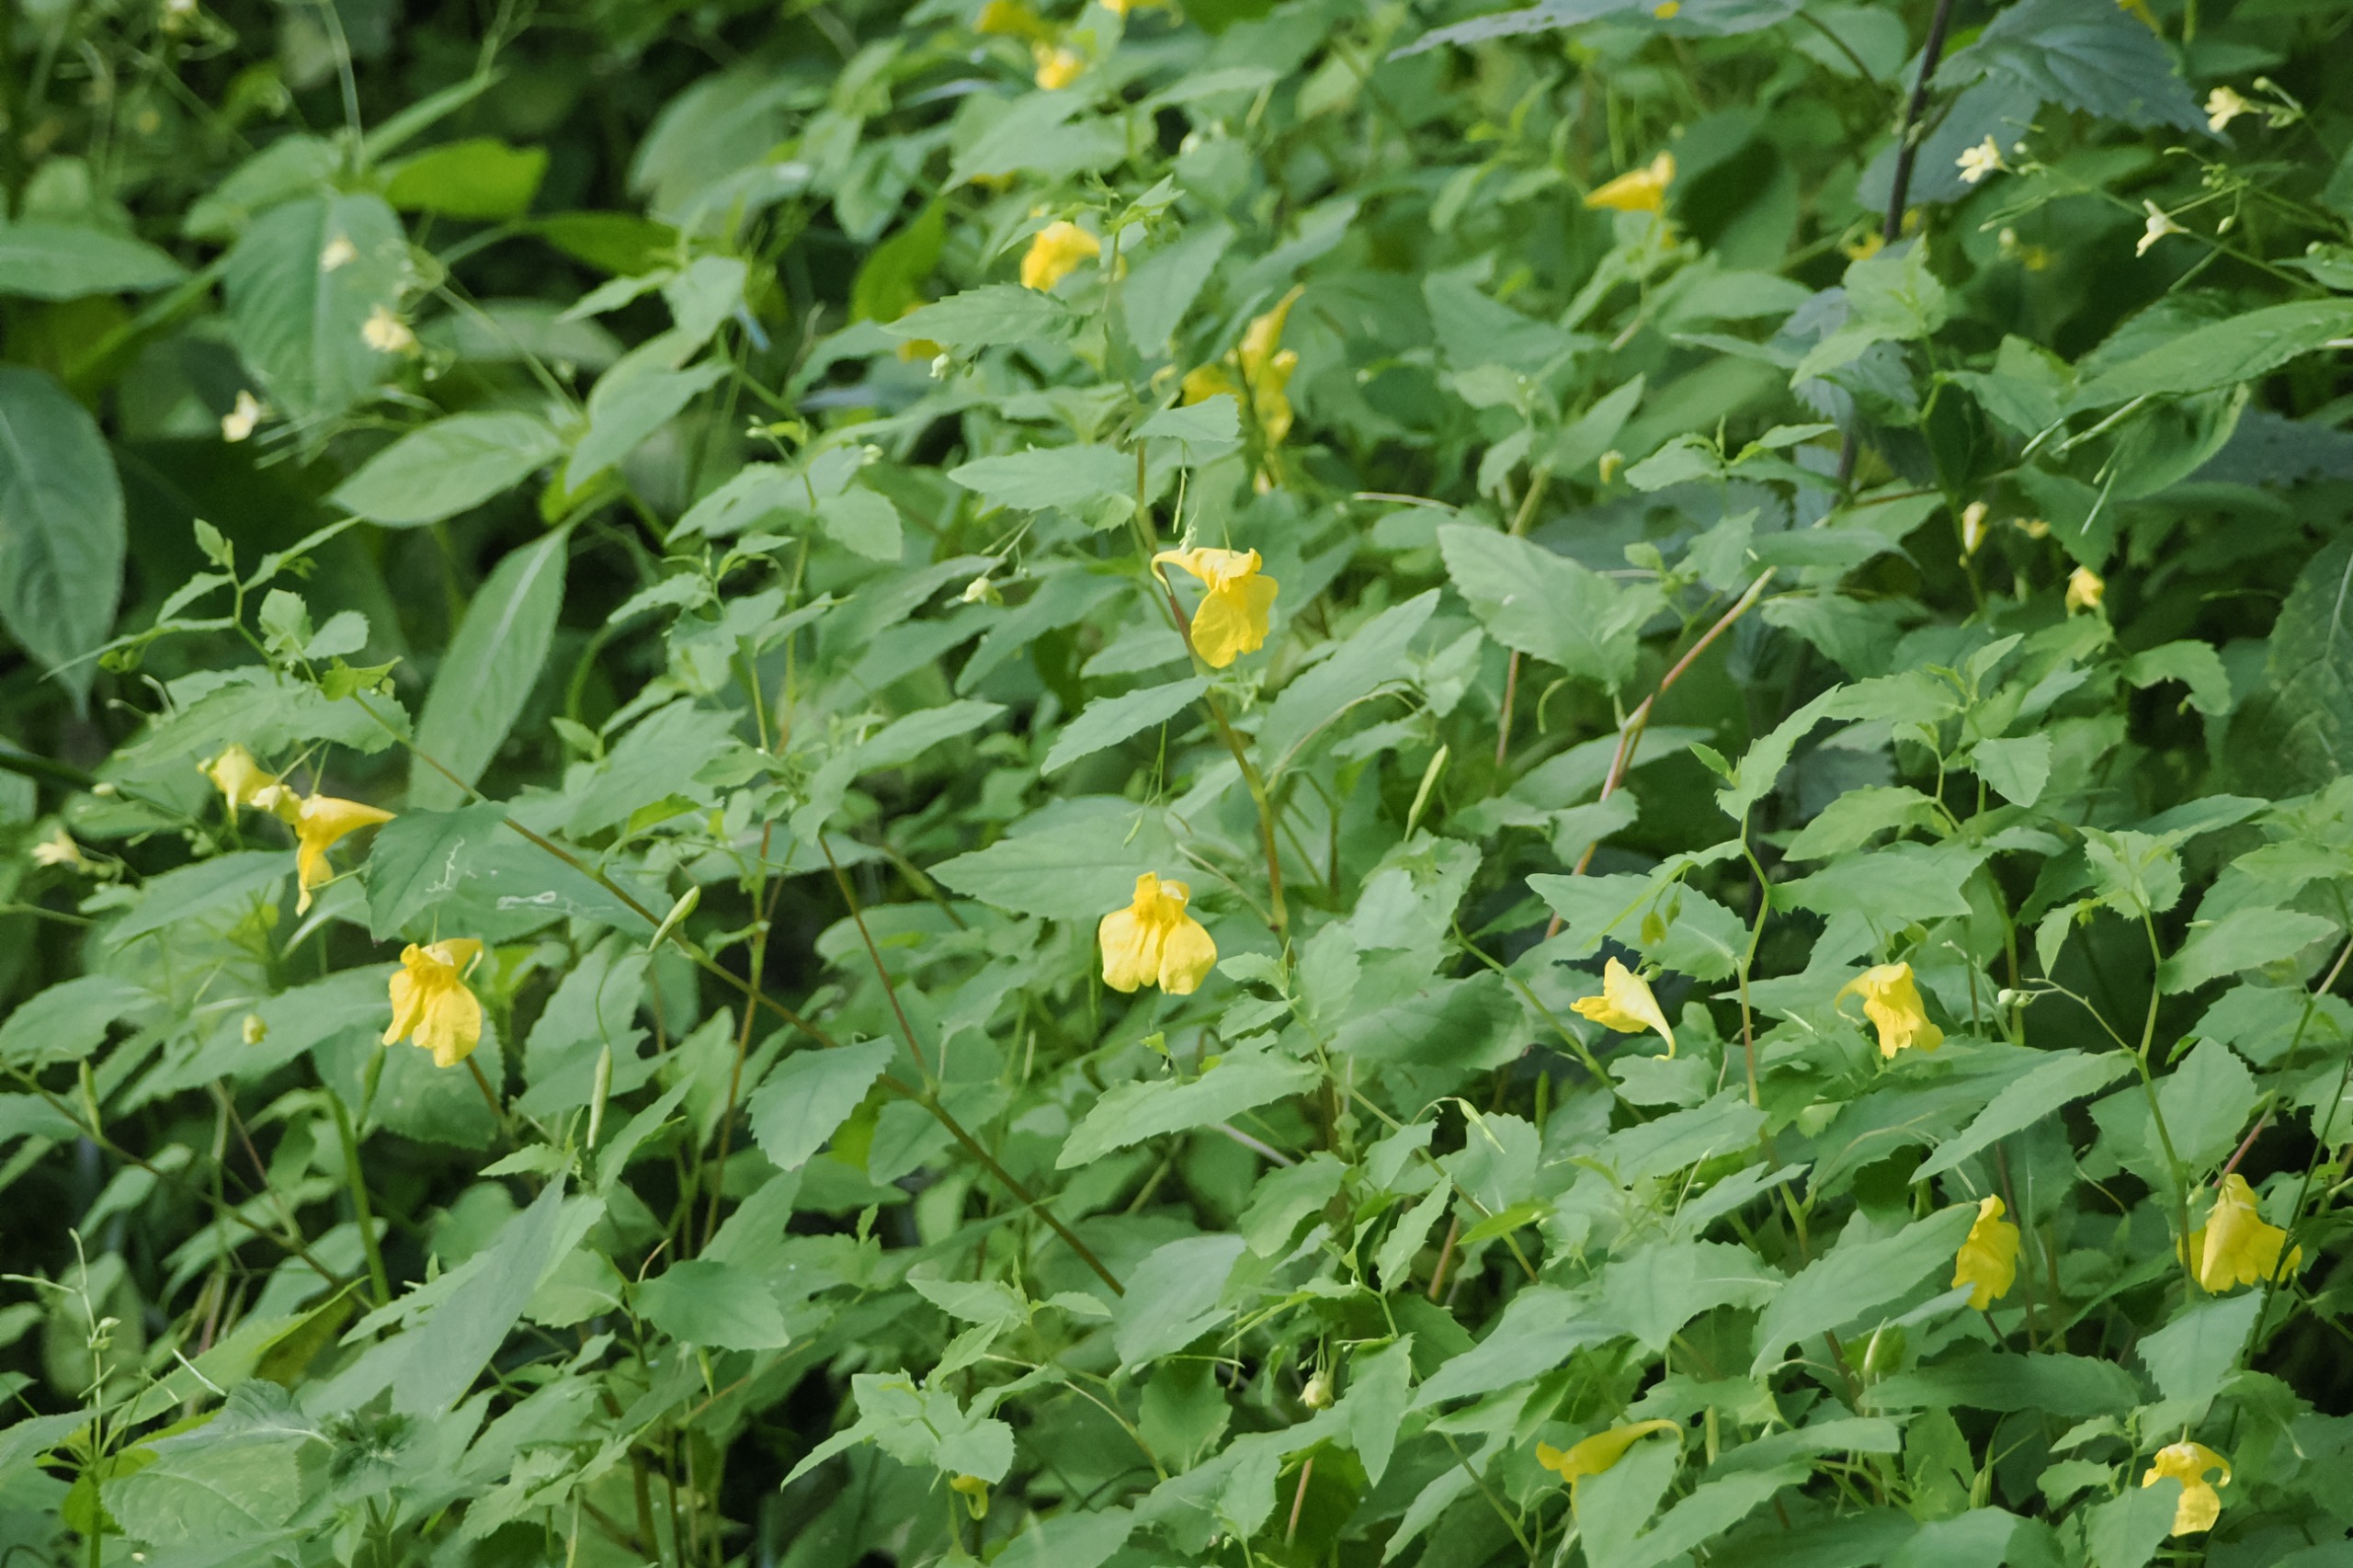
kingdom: Plantae
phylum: Tracheophyta
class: Magnoliopsida
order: Ericales
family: Balsaminaceae
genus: Impatiens
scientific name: Impatiens noli-tangere
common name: Spring-balsamin
